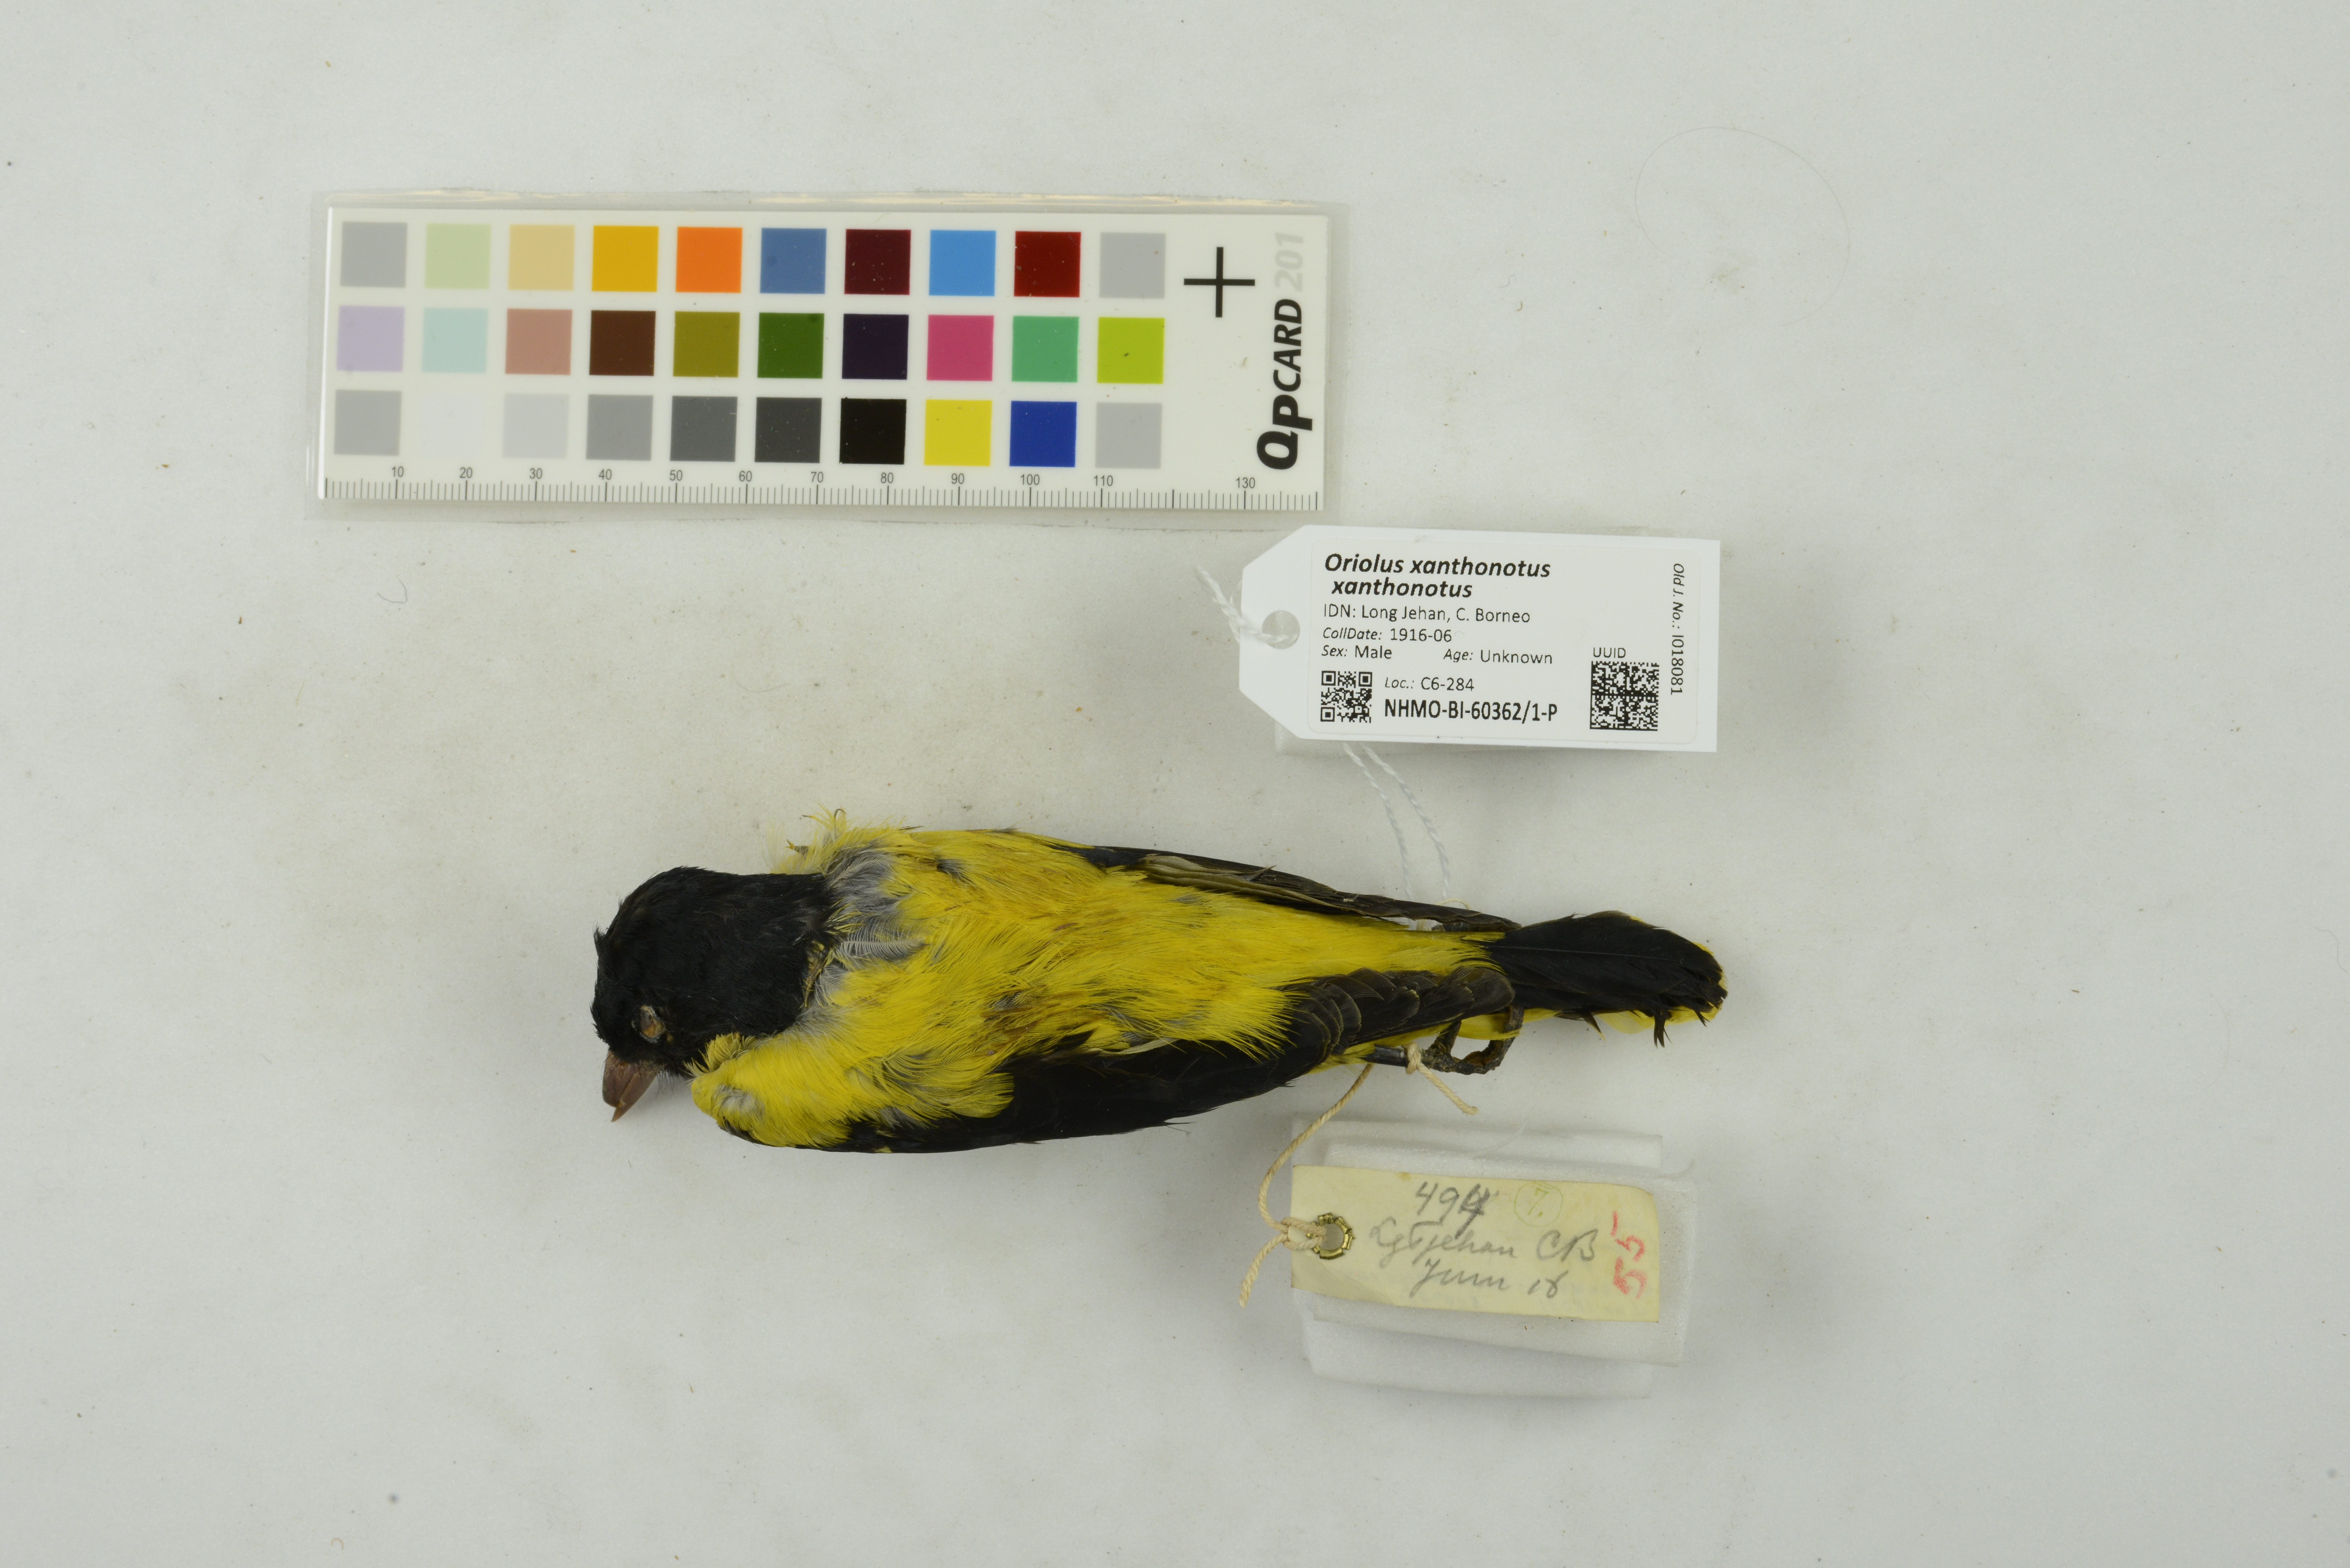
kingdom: Animalia
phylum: Chordata
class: Aves
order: Passeriformes
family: Oriolidae
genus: Oriolus
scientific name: Oriolus xanthonotus
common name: Dark-throated oriole
